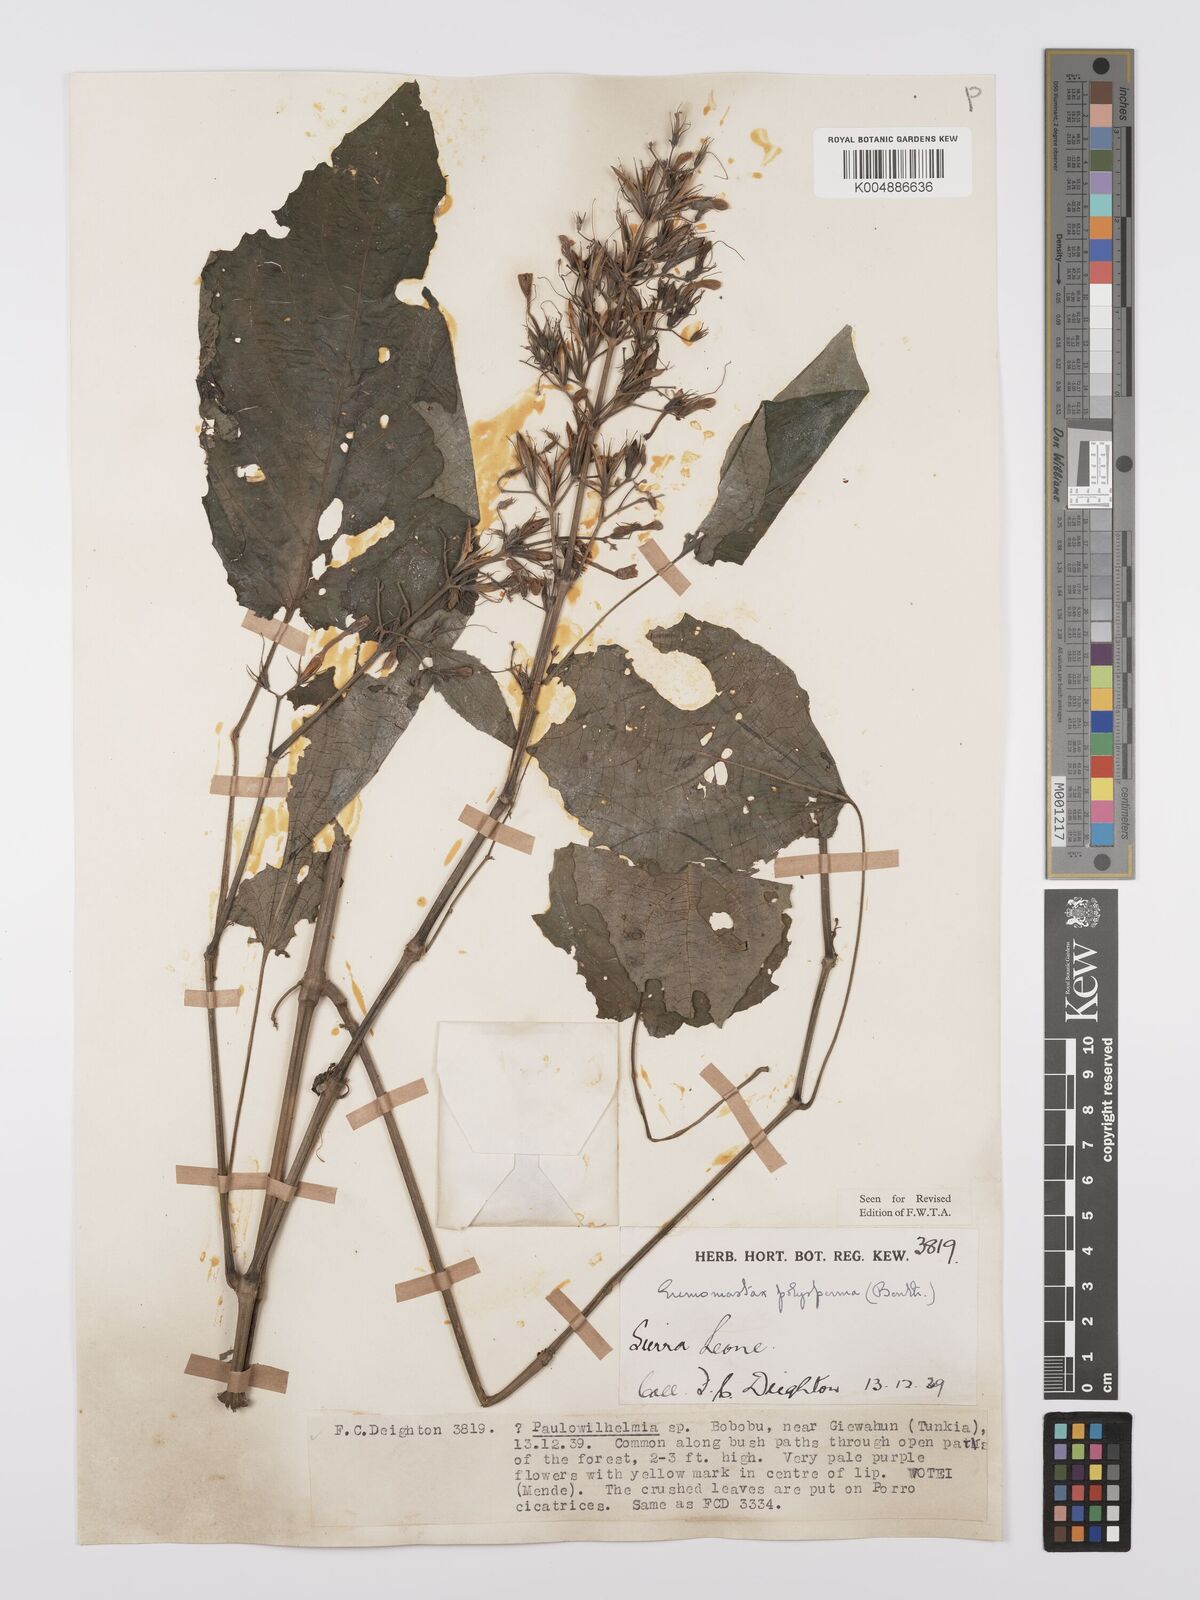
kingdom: Plantae
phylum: Tracheophyta
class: Magnoliopsida
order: Lamiales
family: Acanthaceae
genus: Eremomastax
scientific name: Eremomastax speciosa
